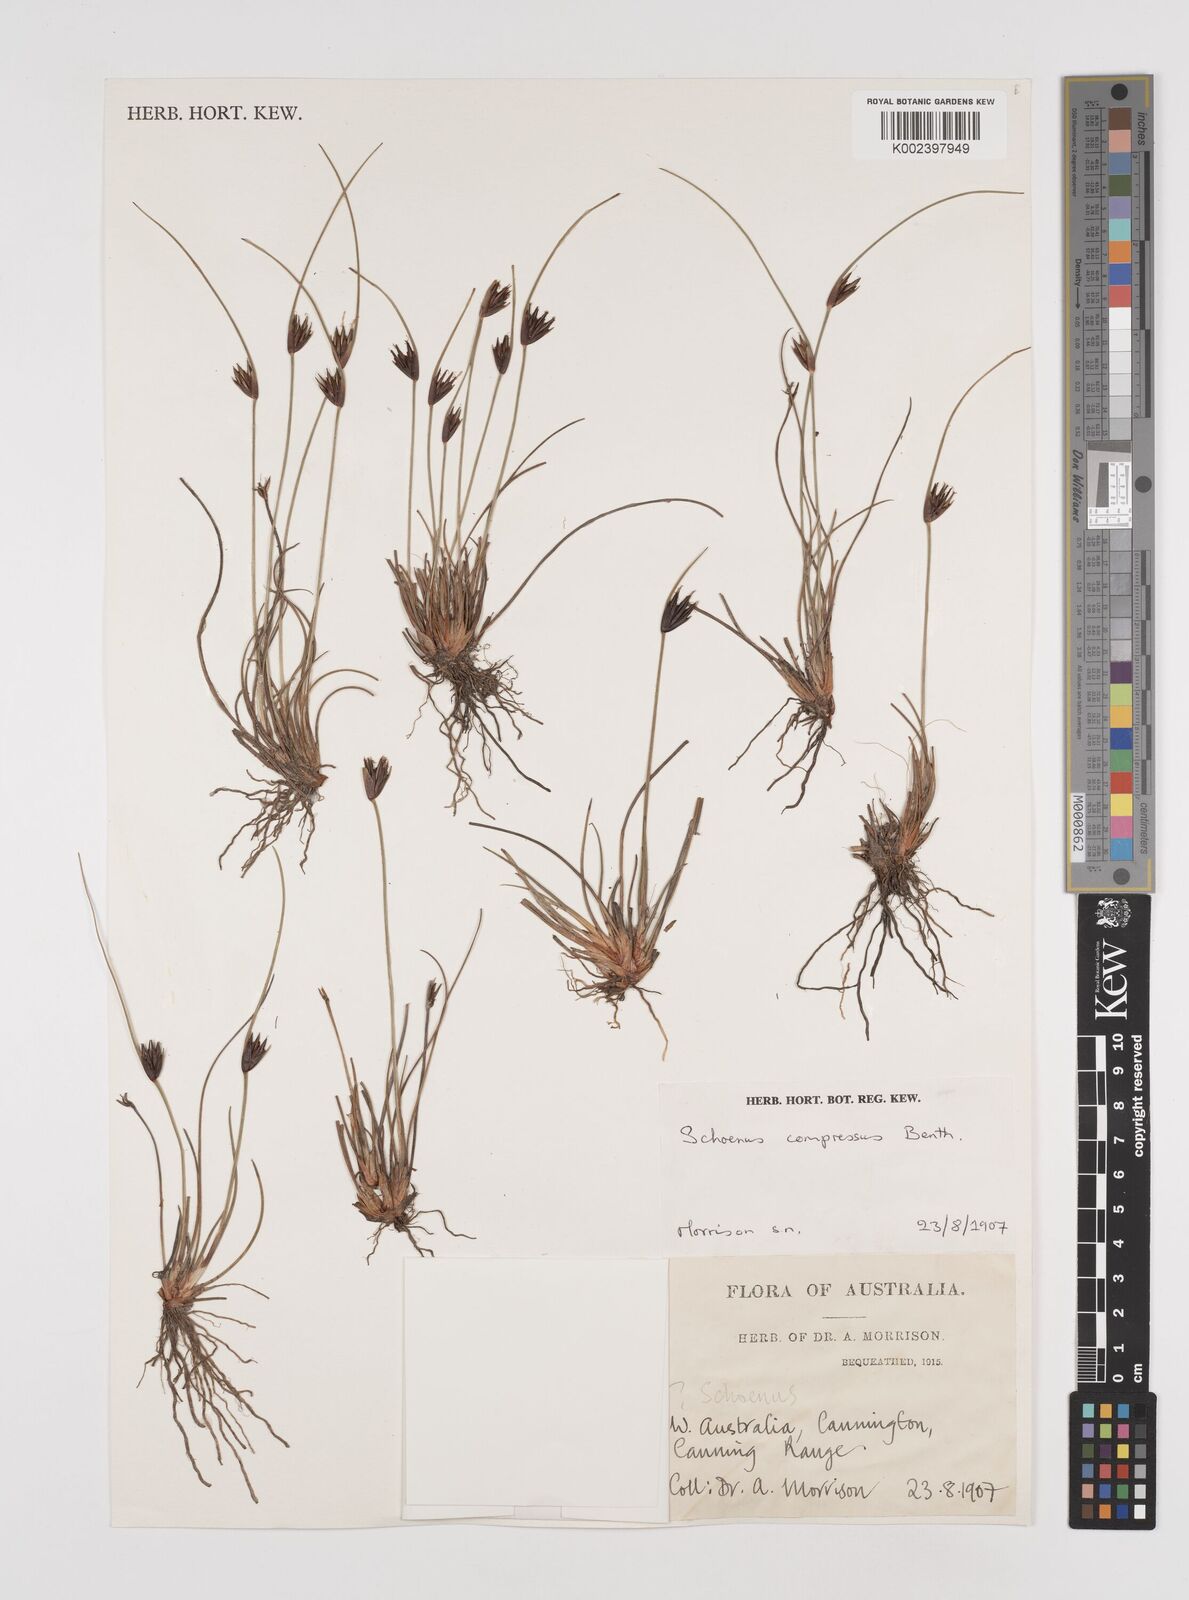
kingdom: Plantae
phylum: Tracheophyta
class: Liliopsida
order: Poales
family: Cyperaceae
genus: Schoenus
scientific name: Schoenus benthamii
